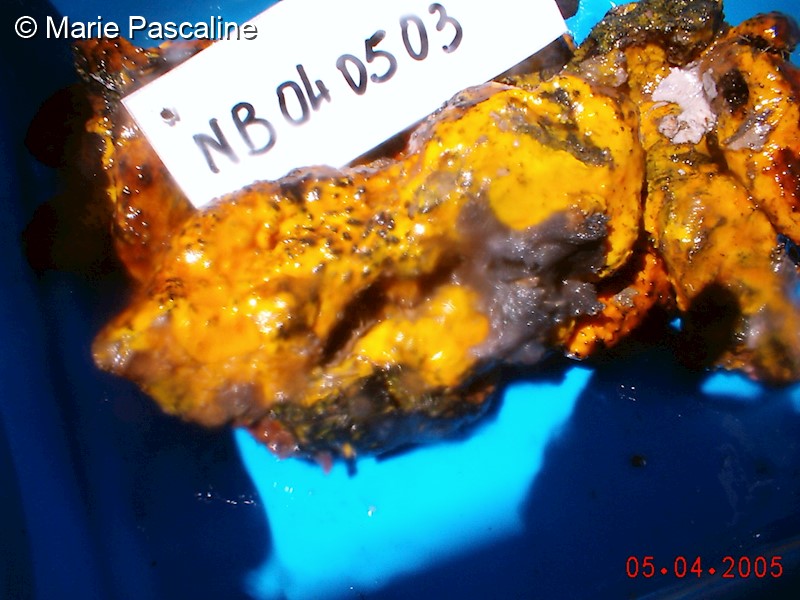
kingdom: Animalia
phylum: Porifera
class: Demospongiae
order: Verongiida
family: Pseudoceratinidae
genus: Pseudoceratina
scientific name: Pseudoceratina arabica
